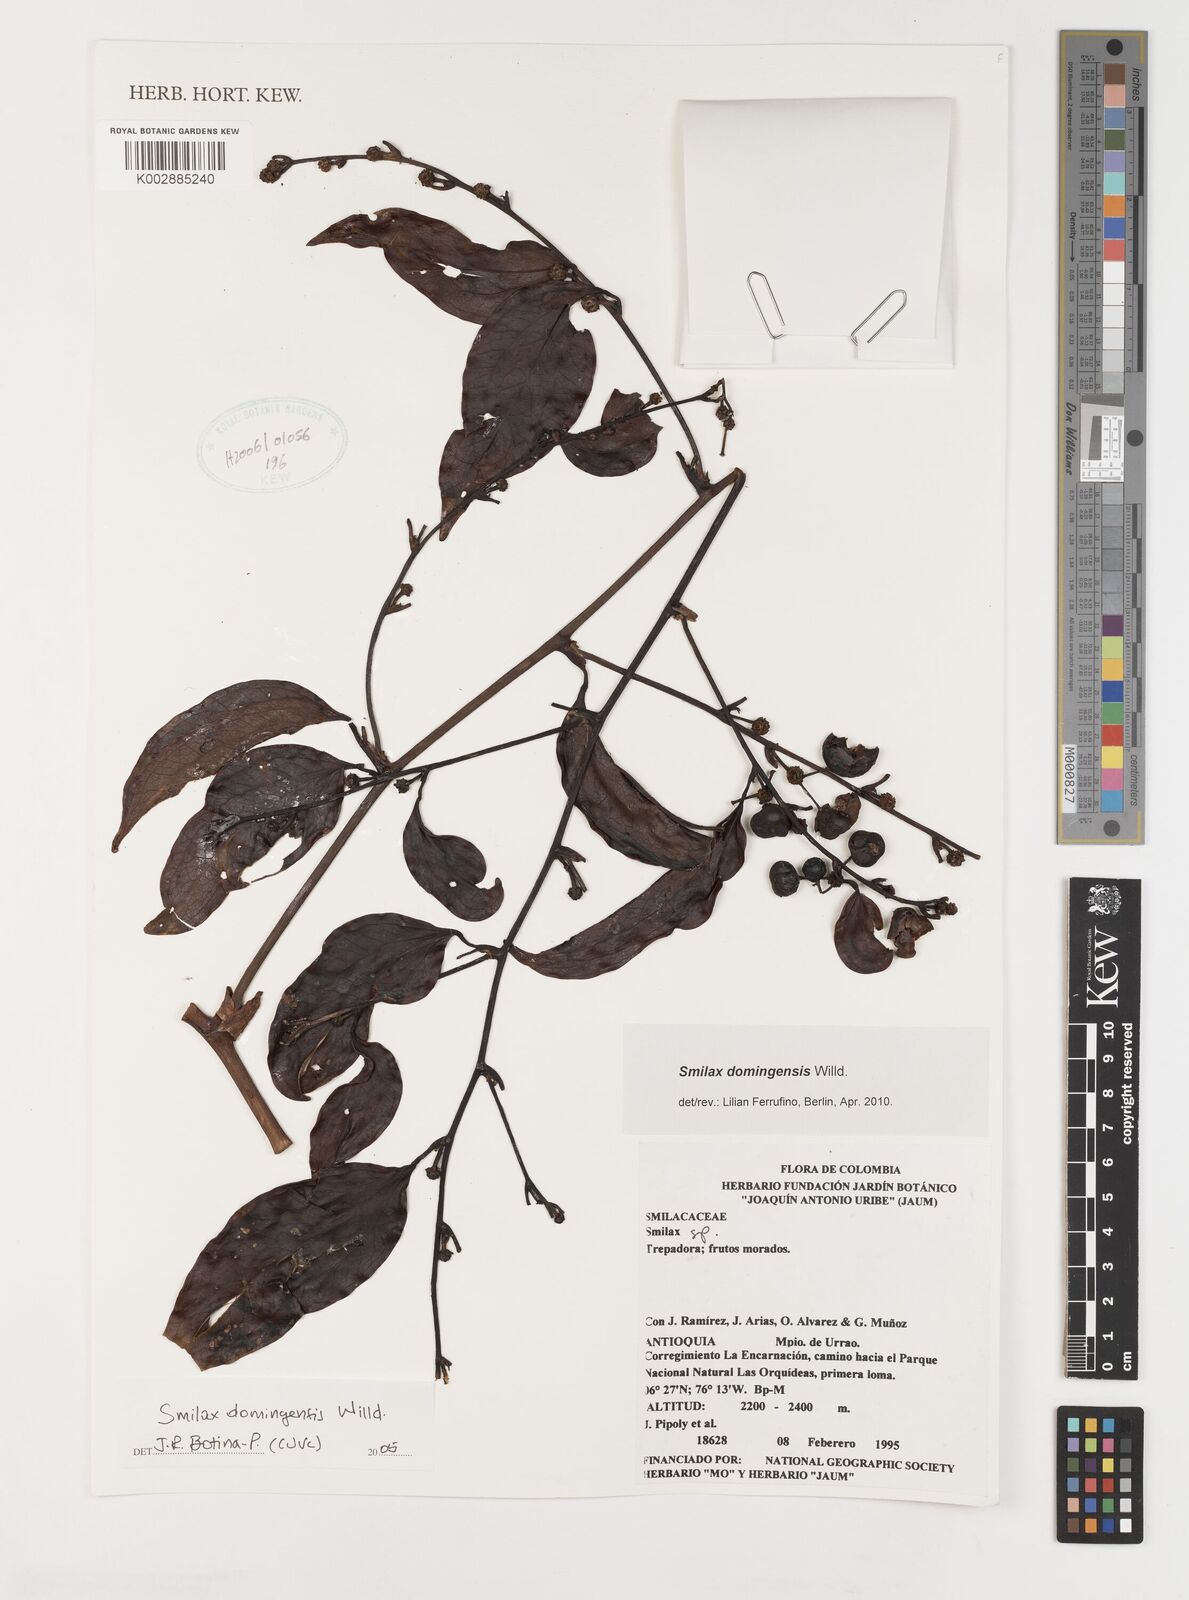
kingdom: Plantae
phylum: Tracheophyta
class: Liliopsida
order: Liliales
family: Smilacaceae
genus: Smilax
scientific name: Smilax domingensis
